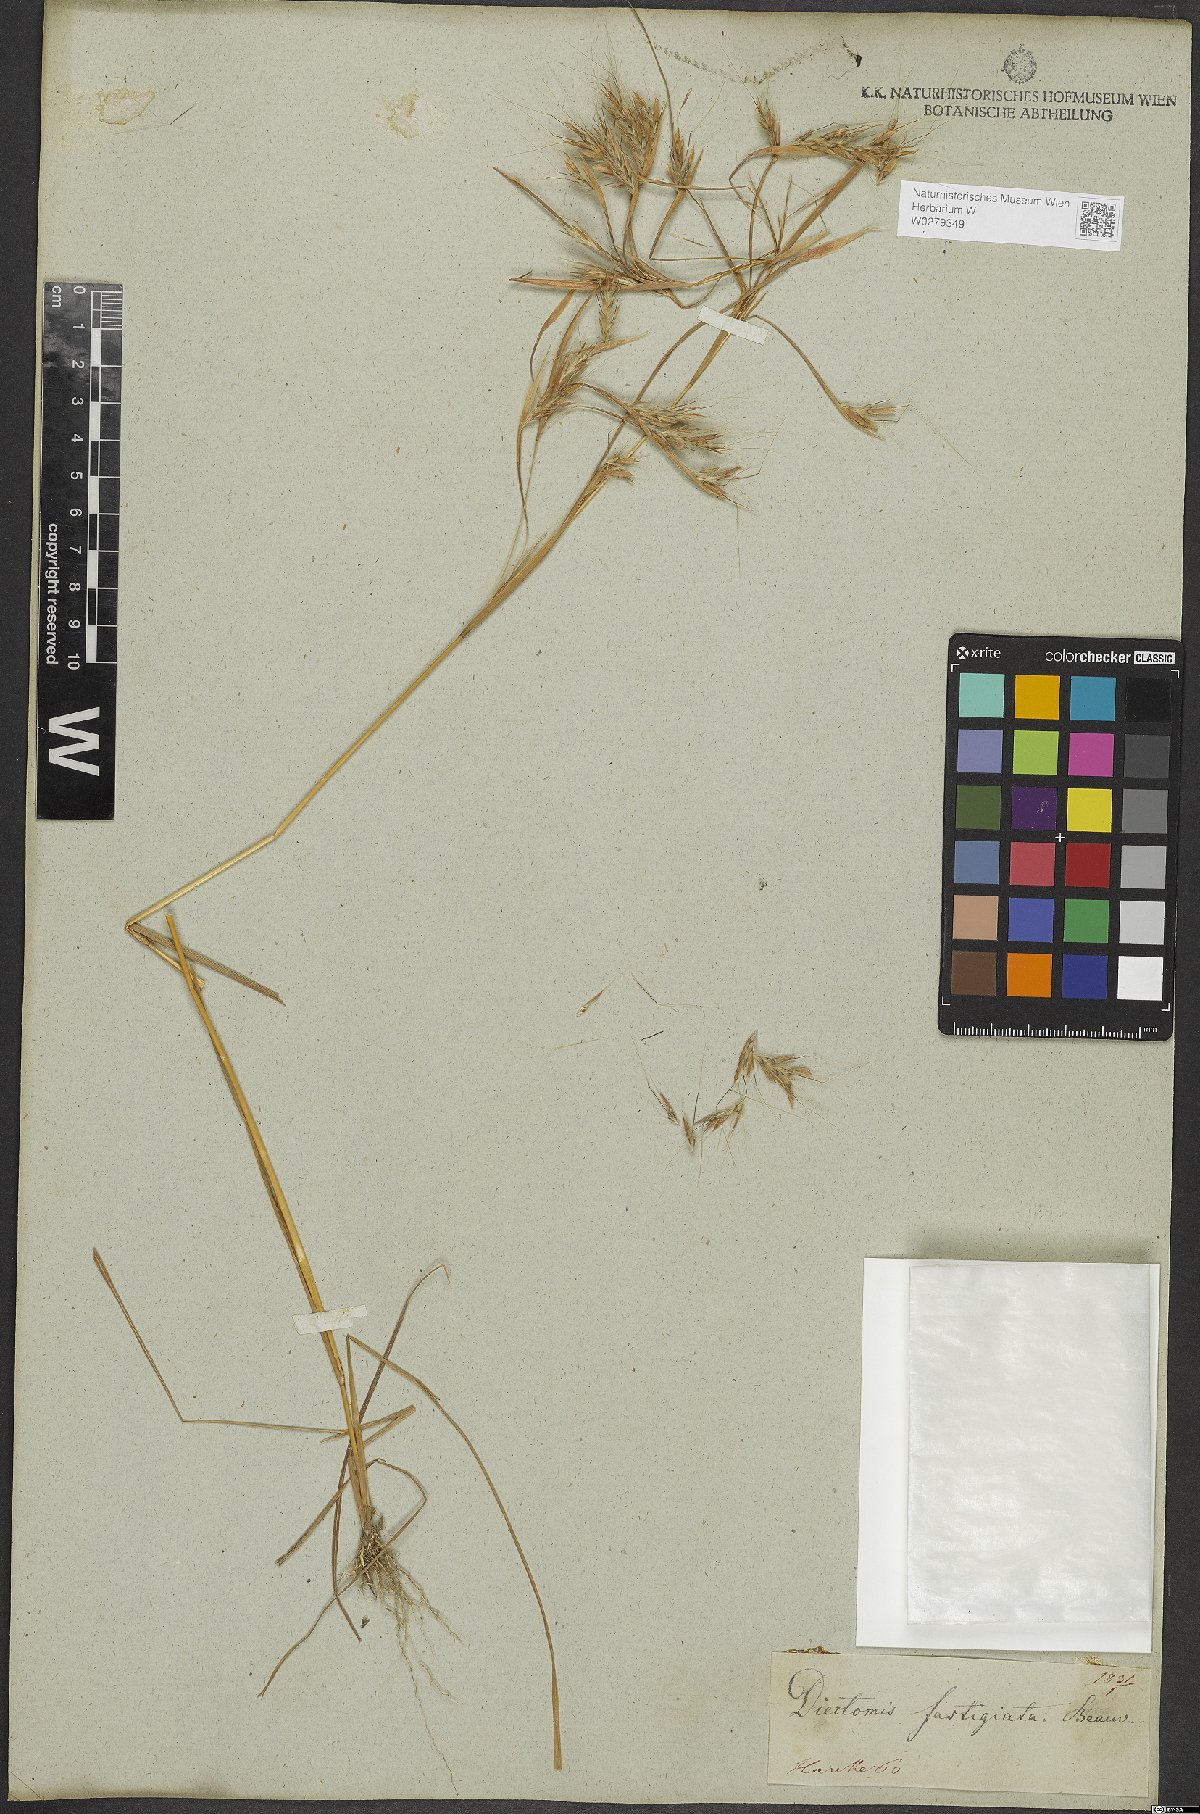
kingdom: Plantae
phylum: Tracheophyta
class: Liliopsida
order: Poales
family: Poaceae
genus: Diectomis
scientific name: Diectomis fastigiata
